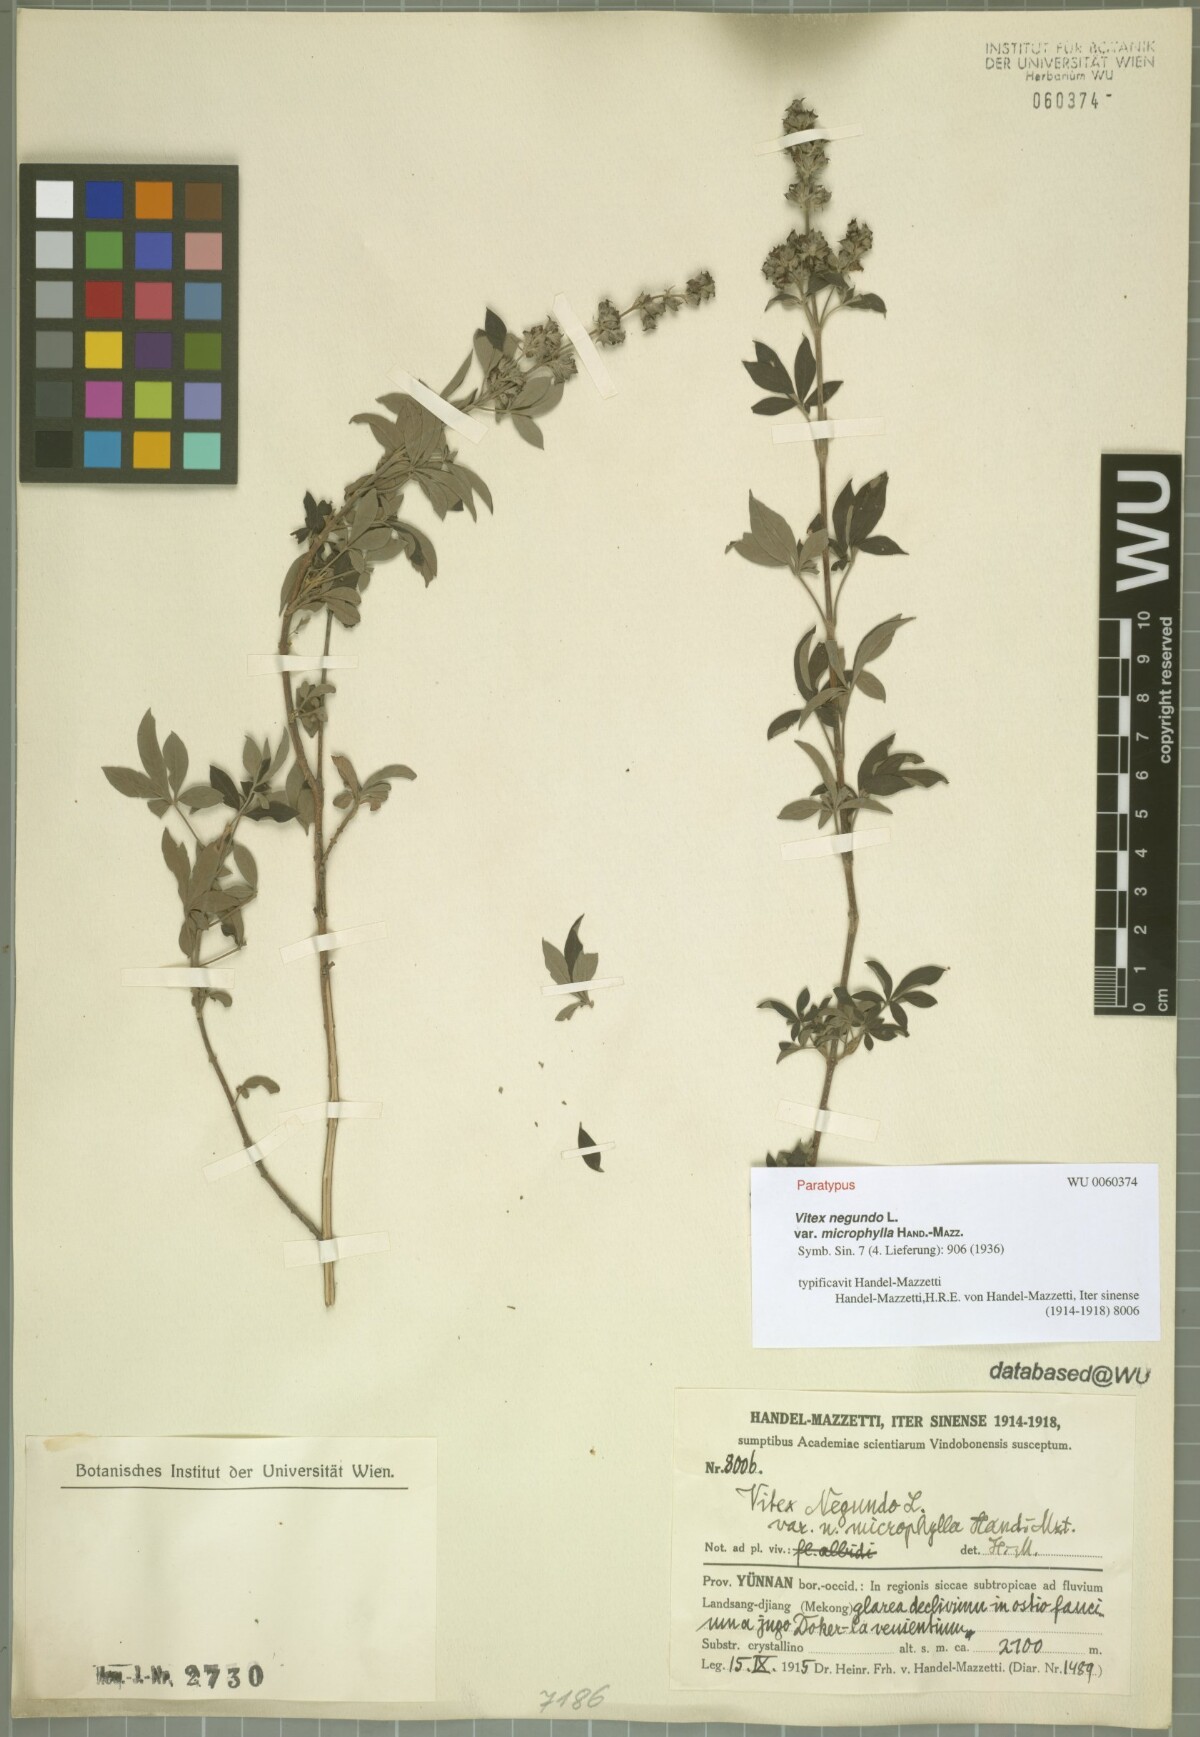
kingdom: Plantae
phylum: Tracheophyta
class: Magnoliopsida
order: Lamiales
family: Lamiaceae
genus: Vitex
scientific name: Vitex negundo
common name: Chinese chastetree
